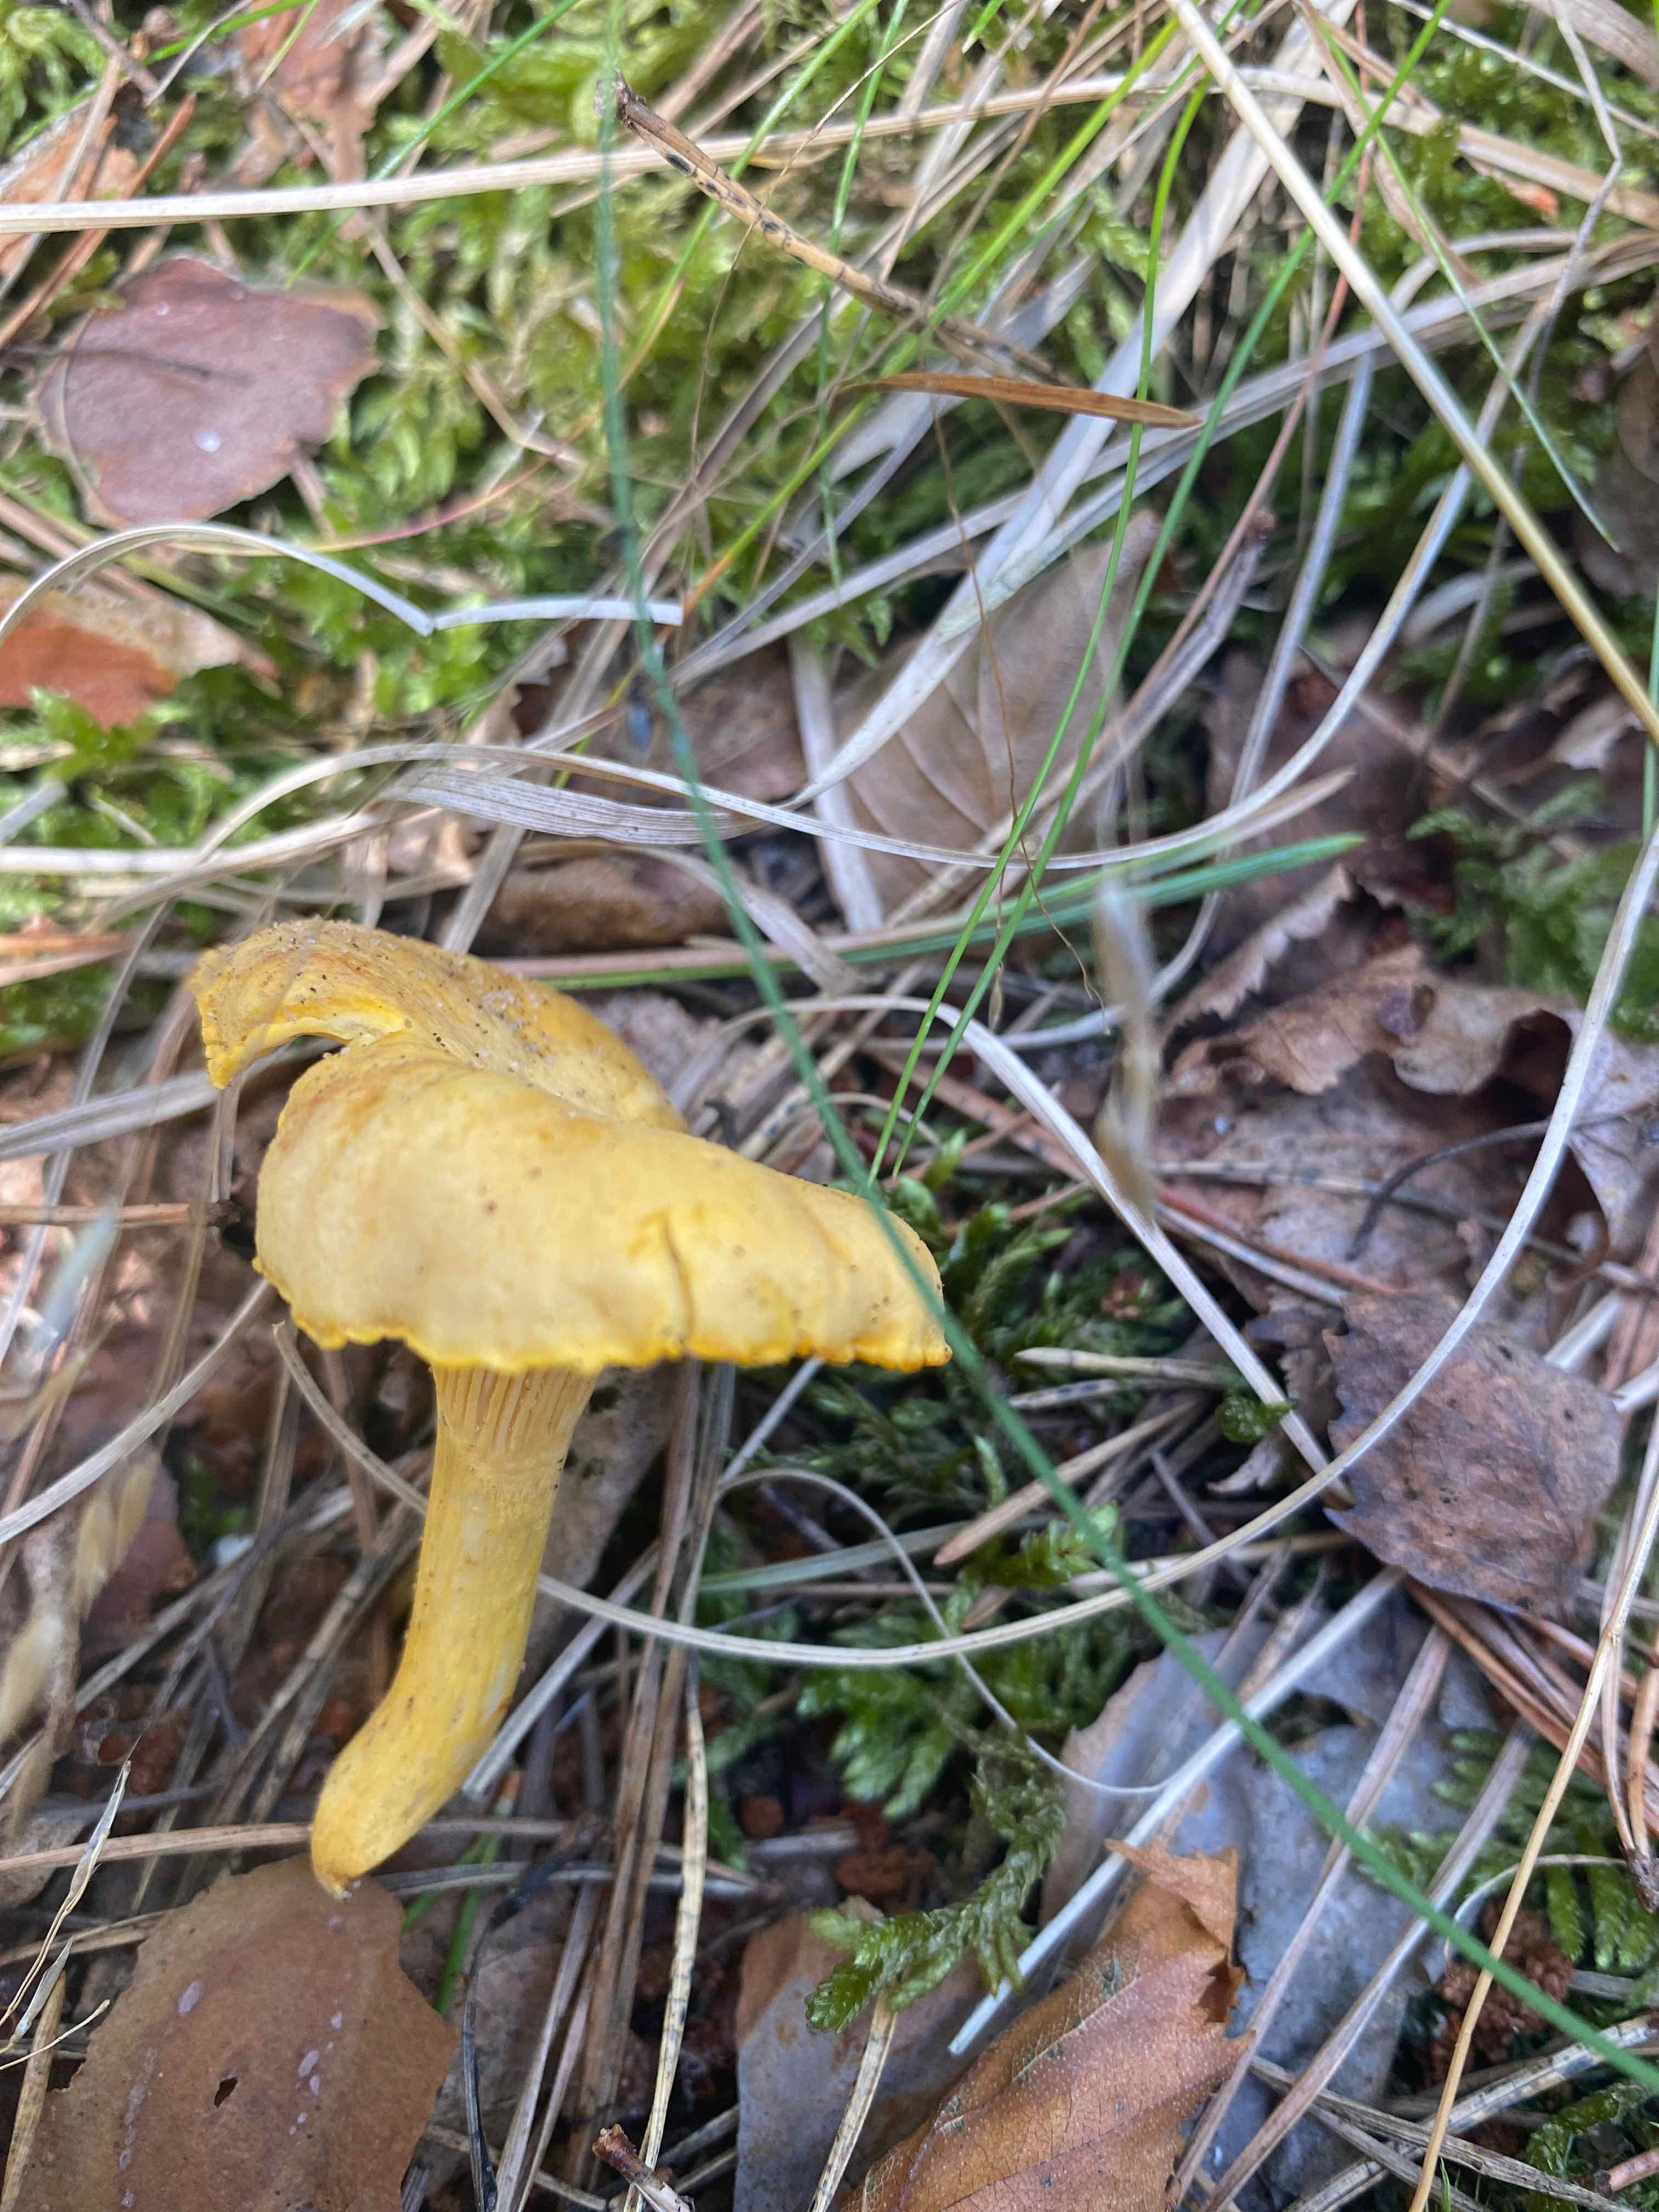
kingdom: Fungi
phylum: Basidiomycota
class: Agaricomycetes
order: Cantharellales
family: Hydnaceae
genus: Cantharellus
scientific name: Cantharellus cibarius
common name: almindelig kantarel
